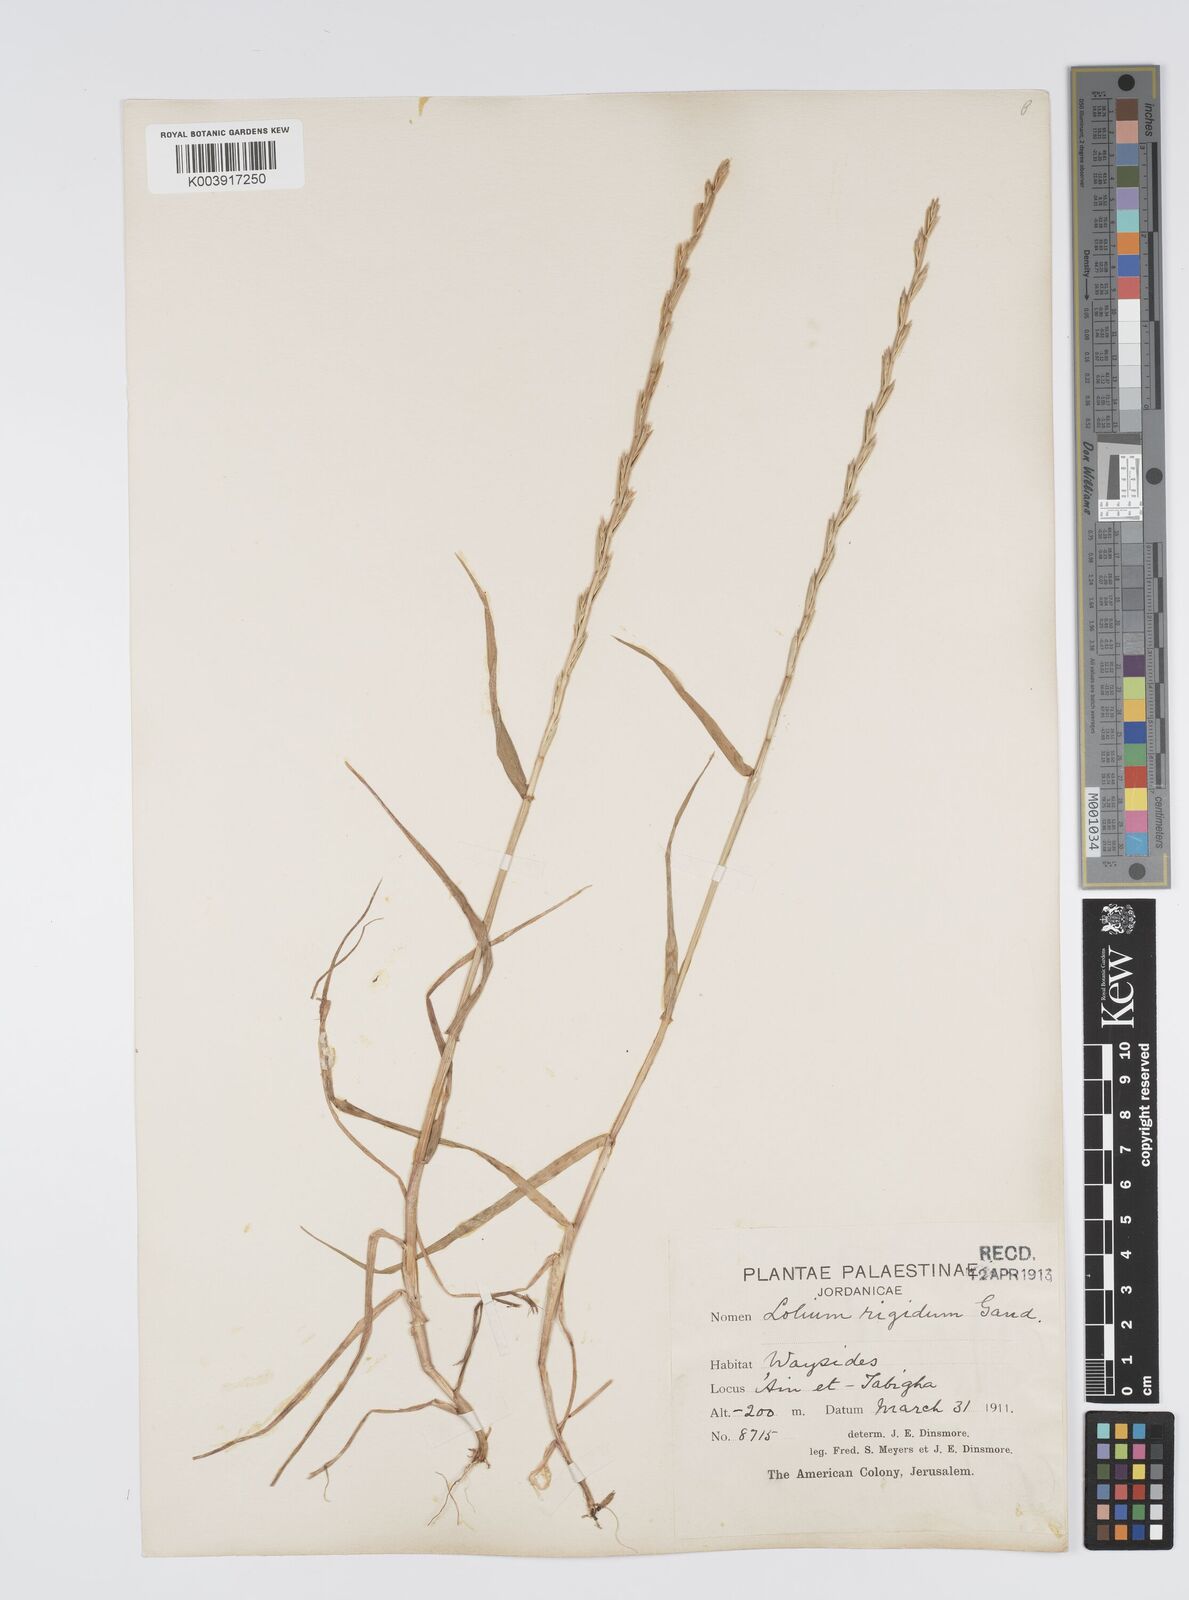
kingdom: Plantae
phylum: Tracheophyta
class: Liliopsida
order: Poales
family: Poaceae
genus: Lolium
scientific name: Lolium rigidum
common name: Wimmera ryegrass
